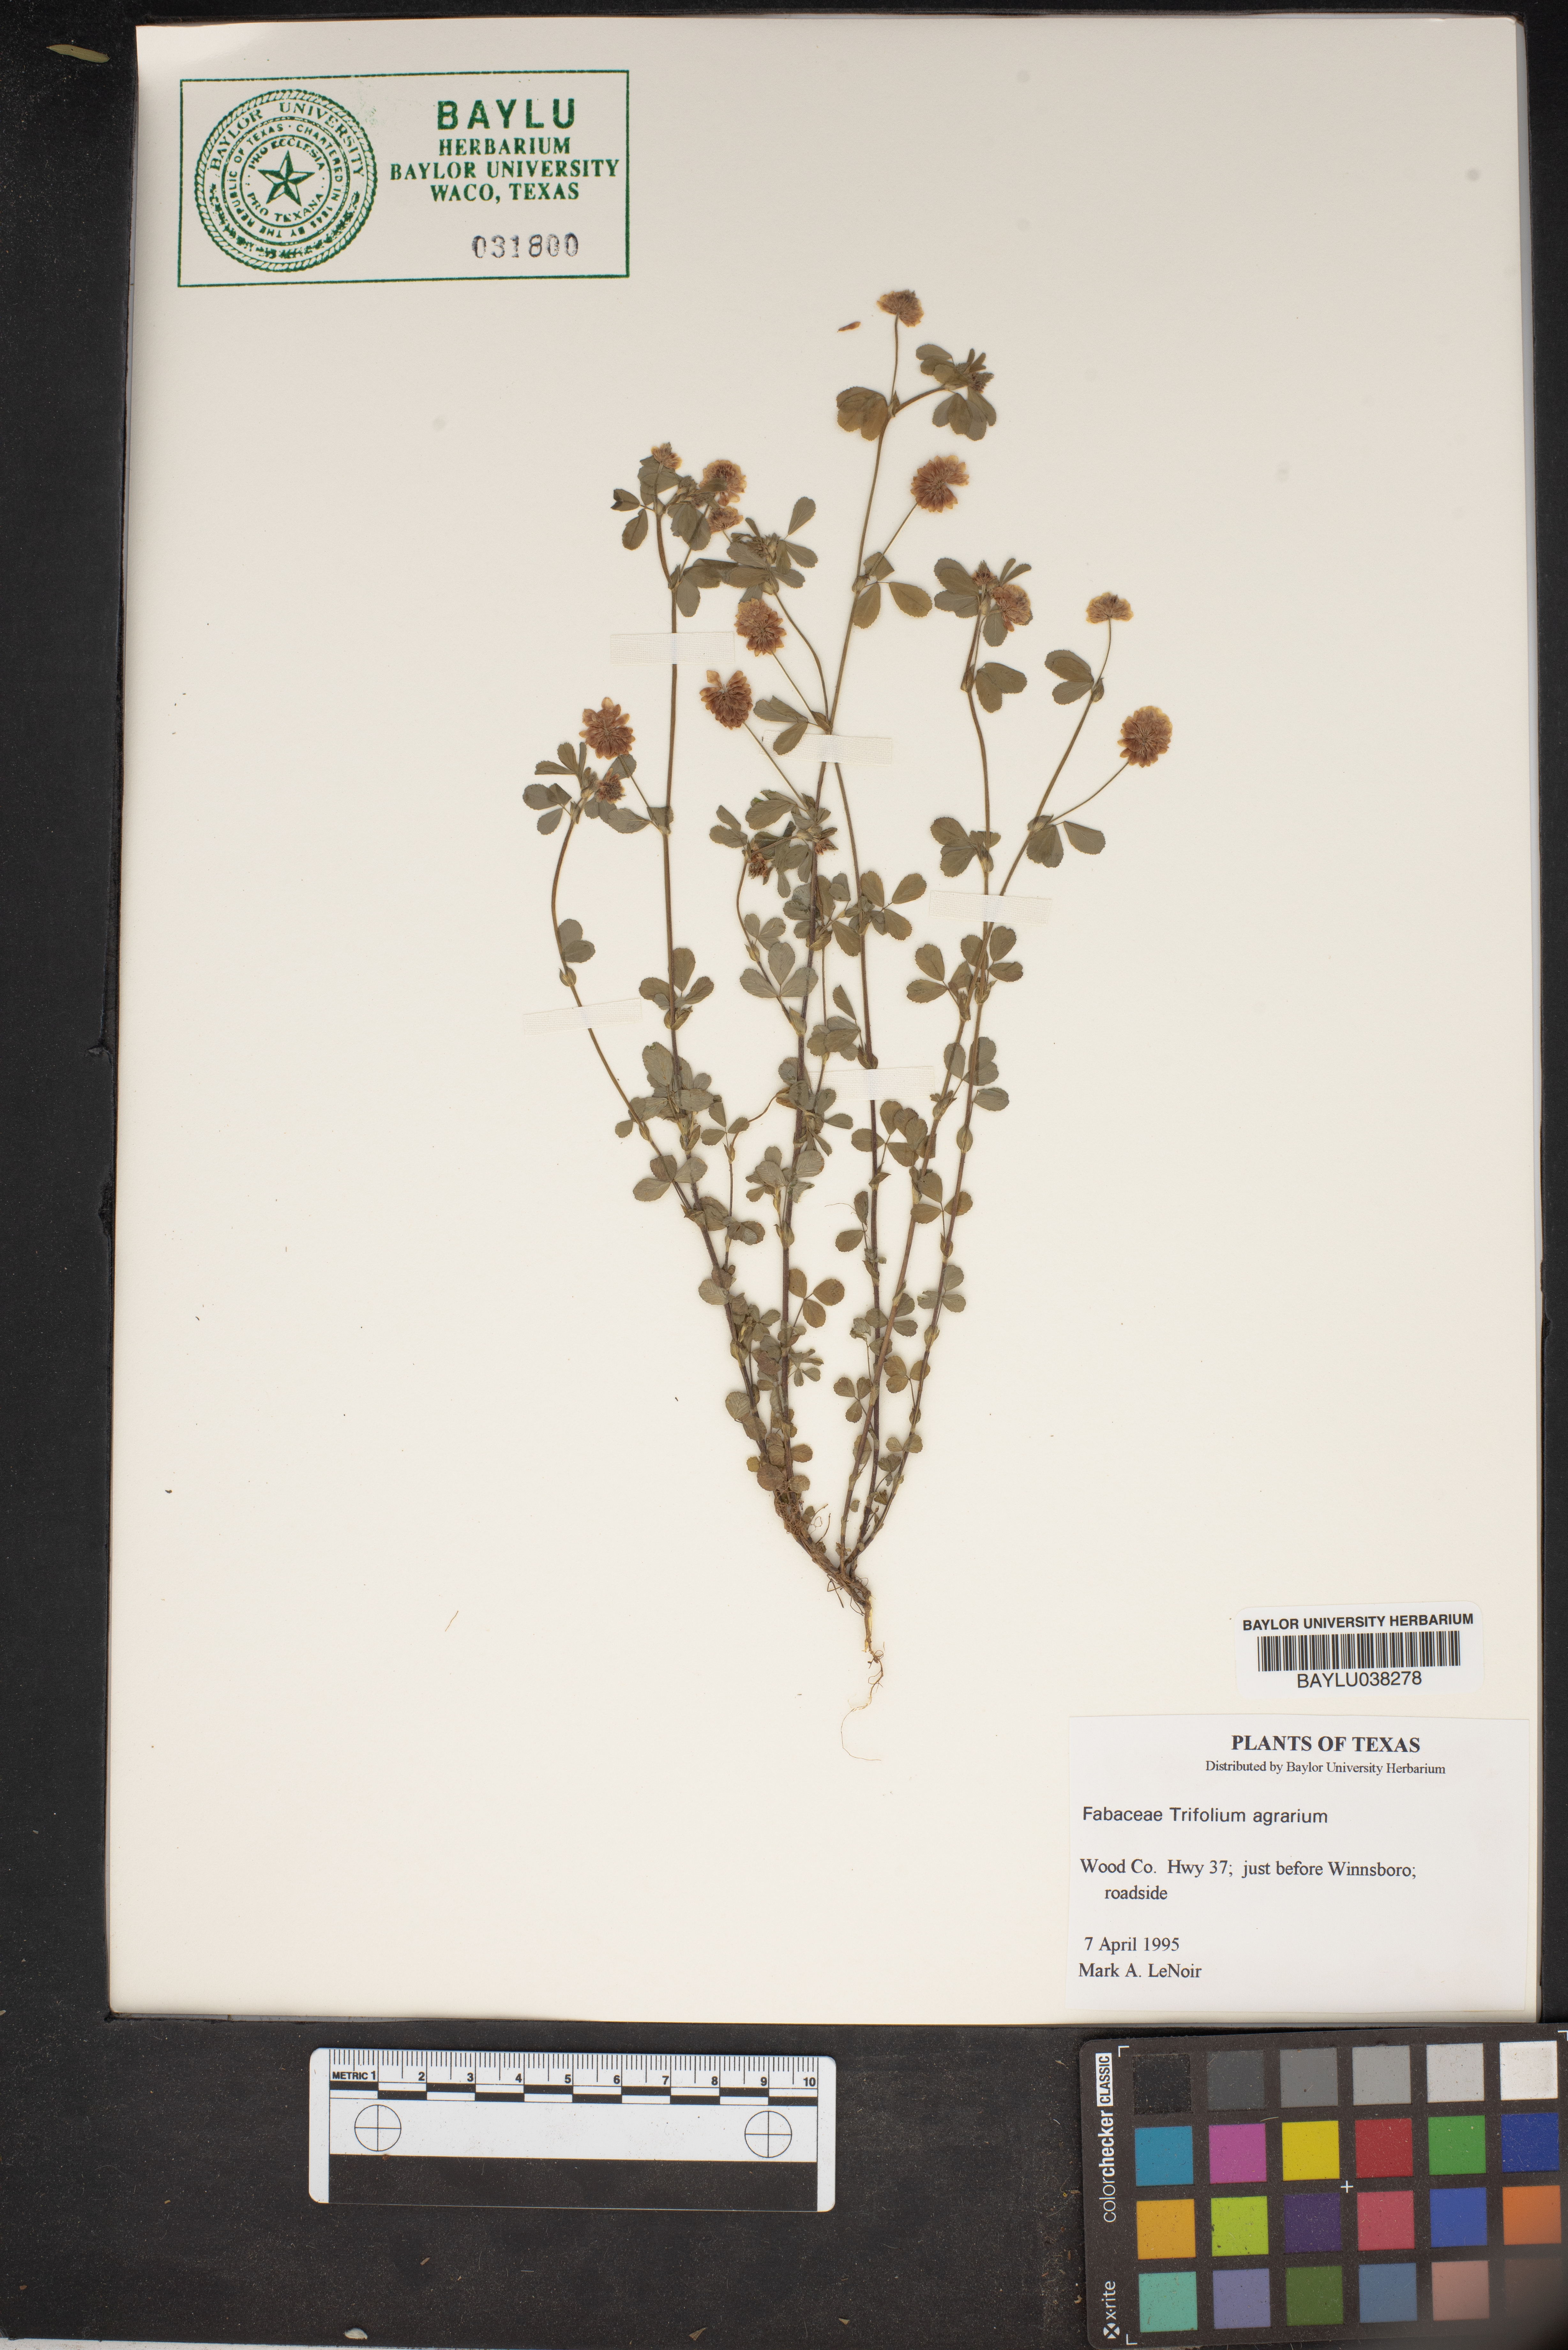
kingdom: Plantae
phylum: Tracheophyta
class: Magnoliopsida
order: Fabales
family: Fabaceae
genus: Trifolium
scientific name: Trifolium agrarium
